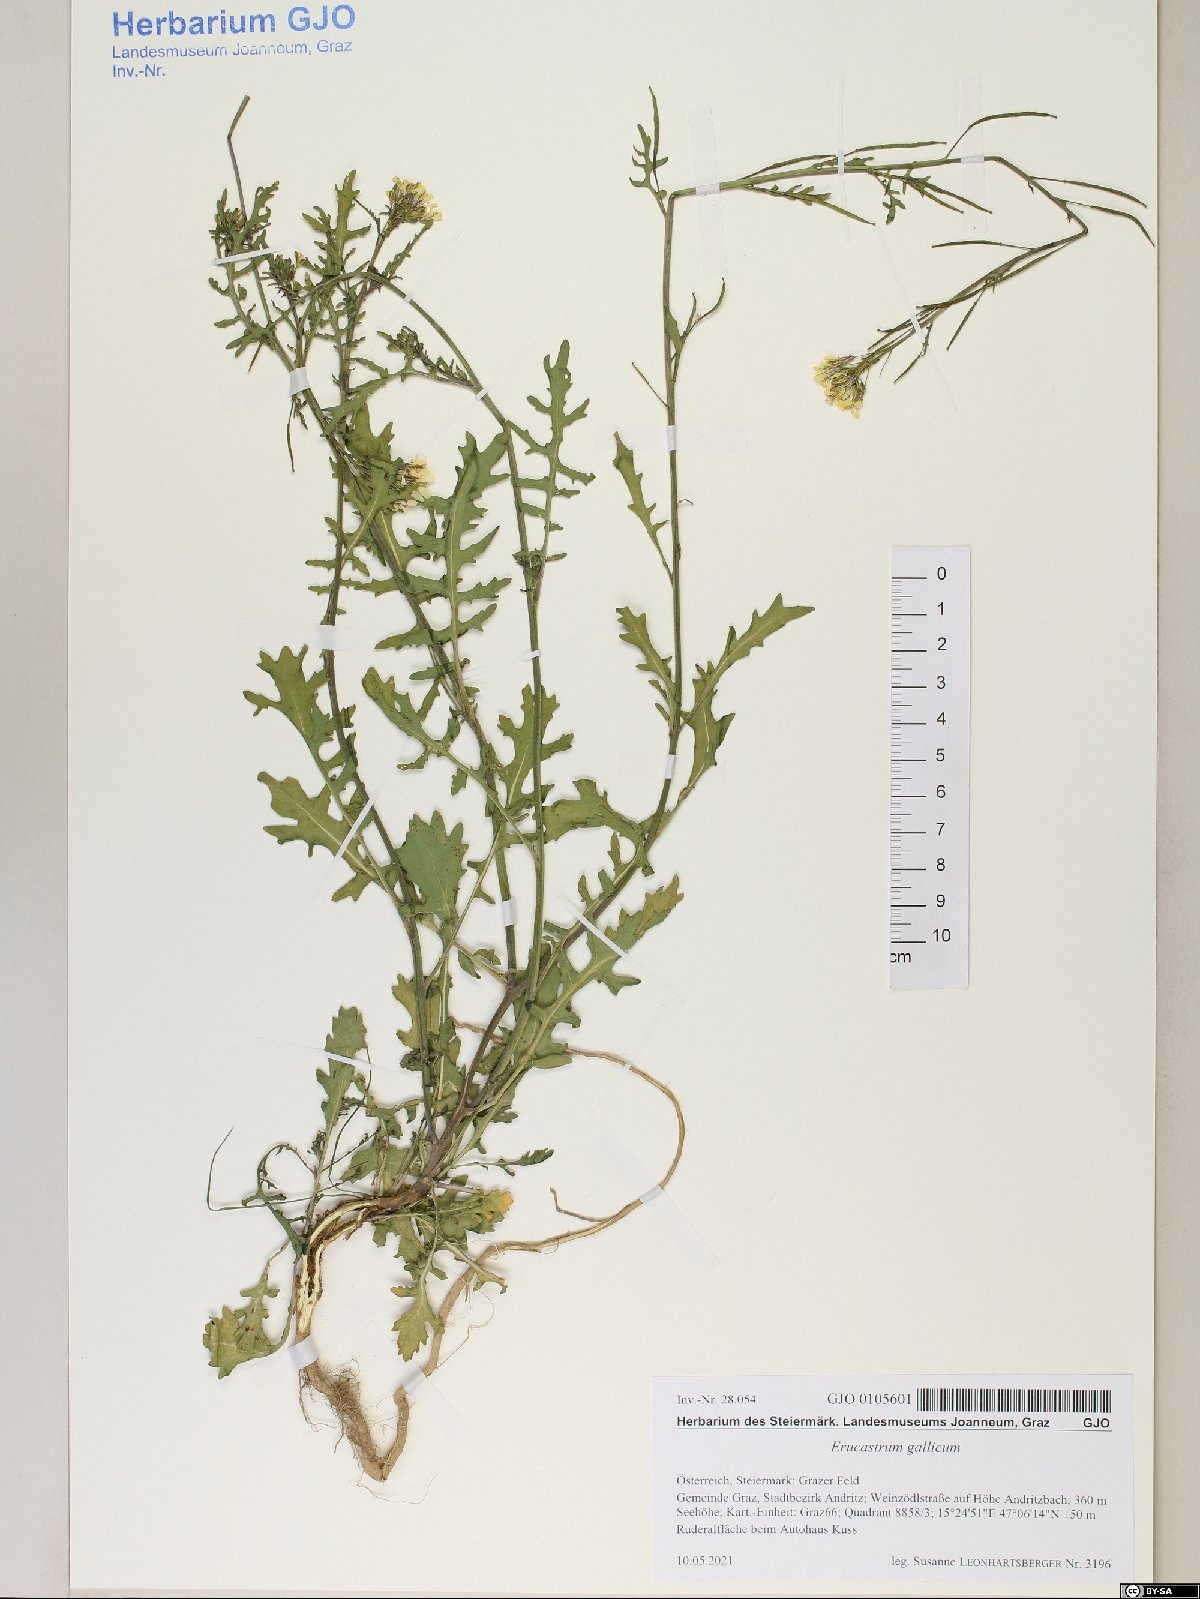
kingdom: Plantae
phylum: Tracheophyta
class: Magnoliopsida
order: Brassicales
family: Brassicaceae
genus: Erucastrum
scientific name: Erucastrum gallicum
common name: Hairy rocket
